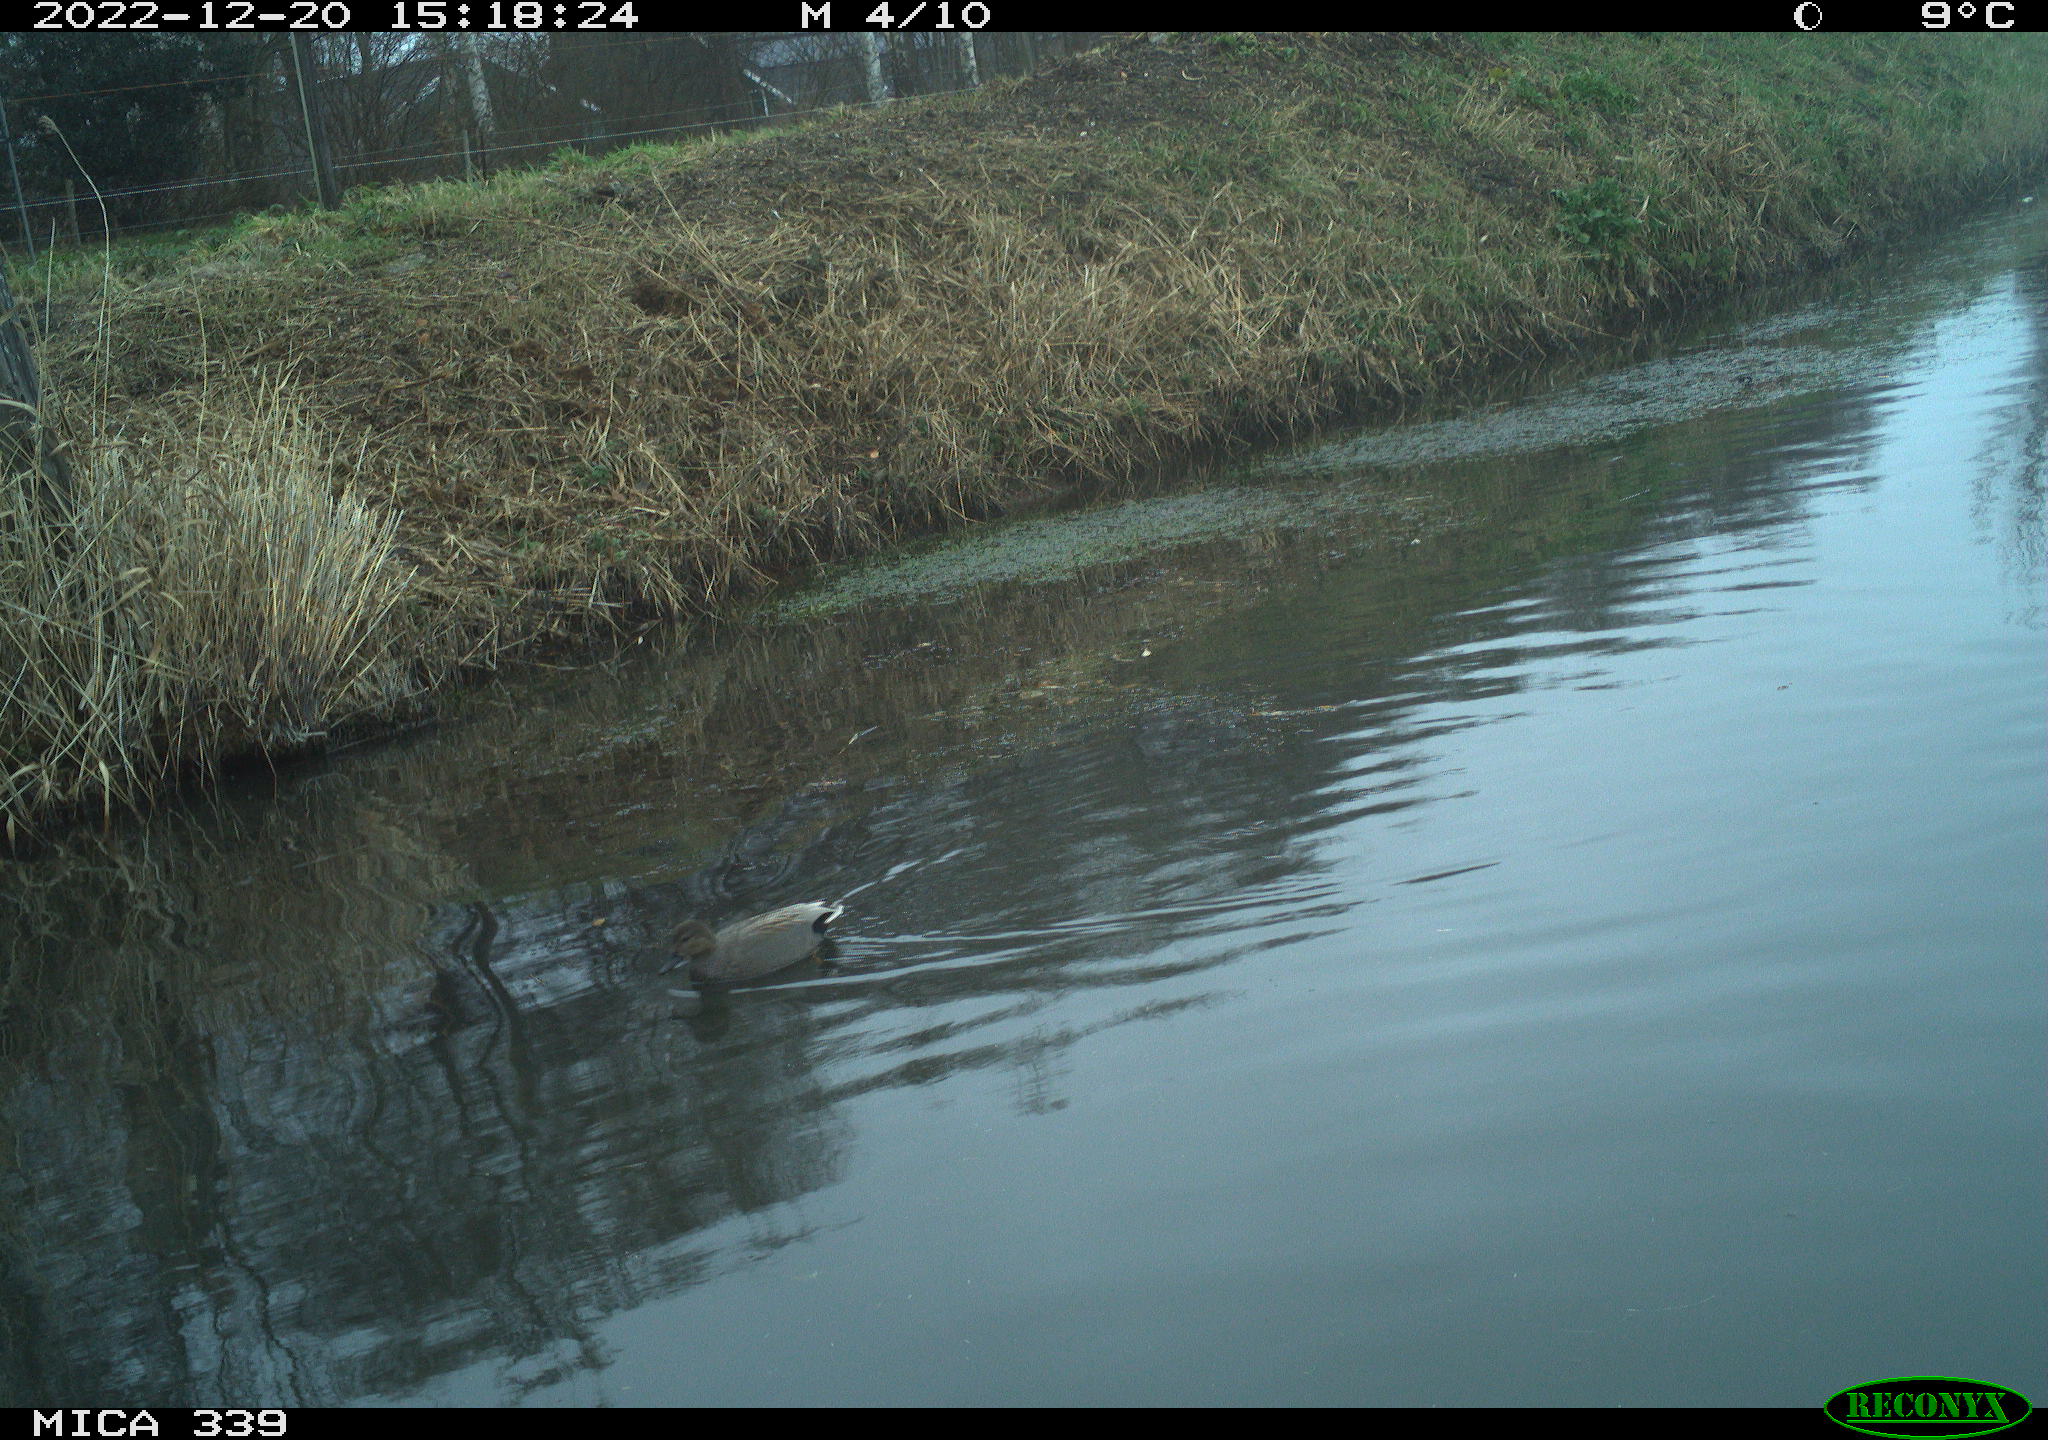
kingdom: Animalia
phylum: Chordata
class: Aves
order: Anseriformes
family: Anatidae
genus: Anas
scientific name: Anas
